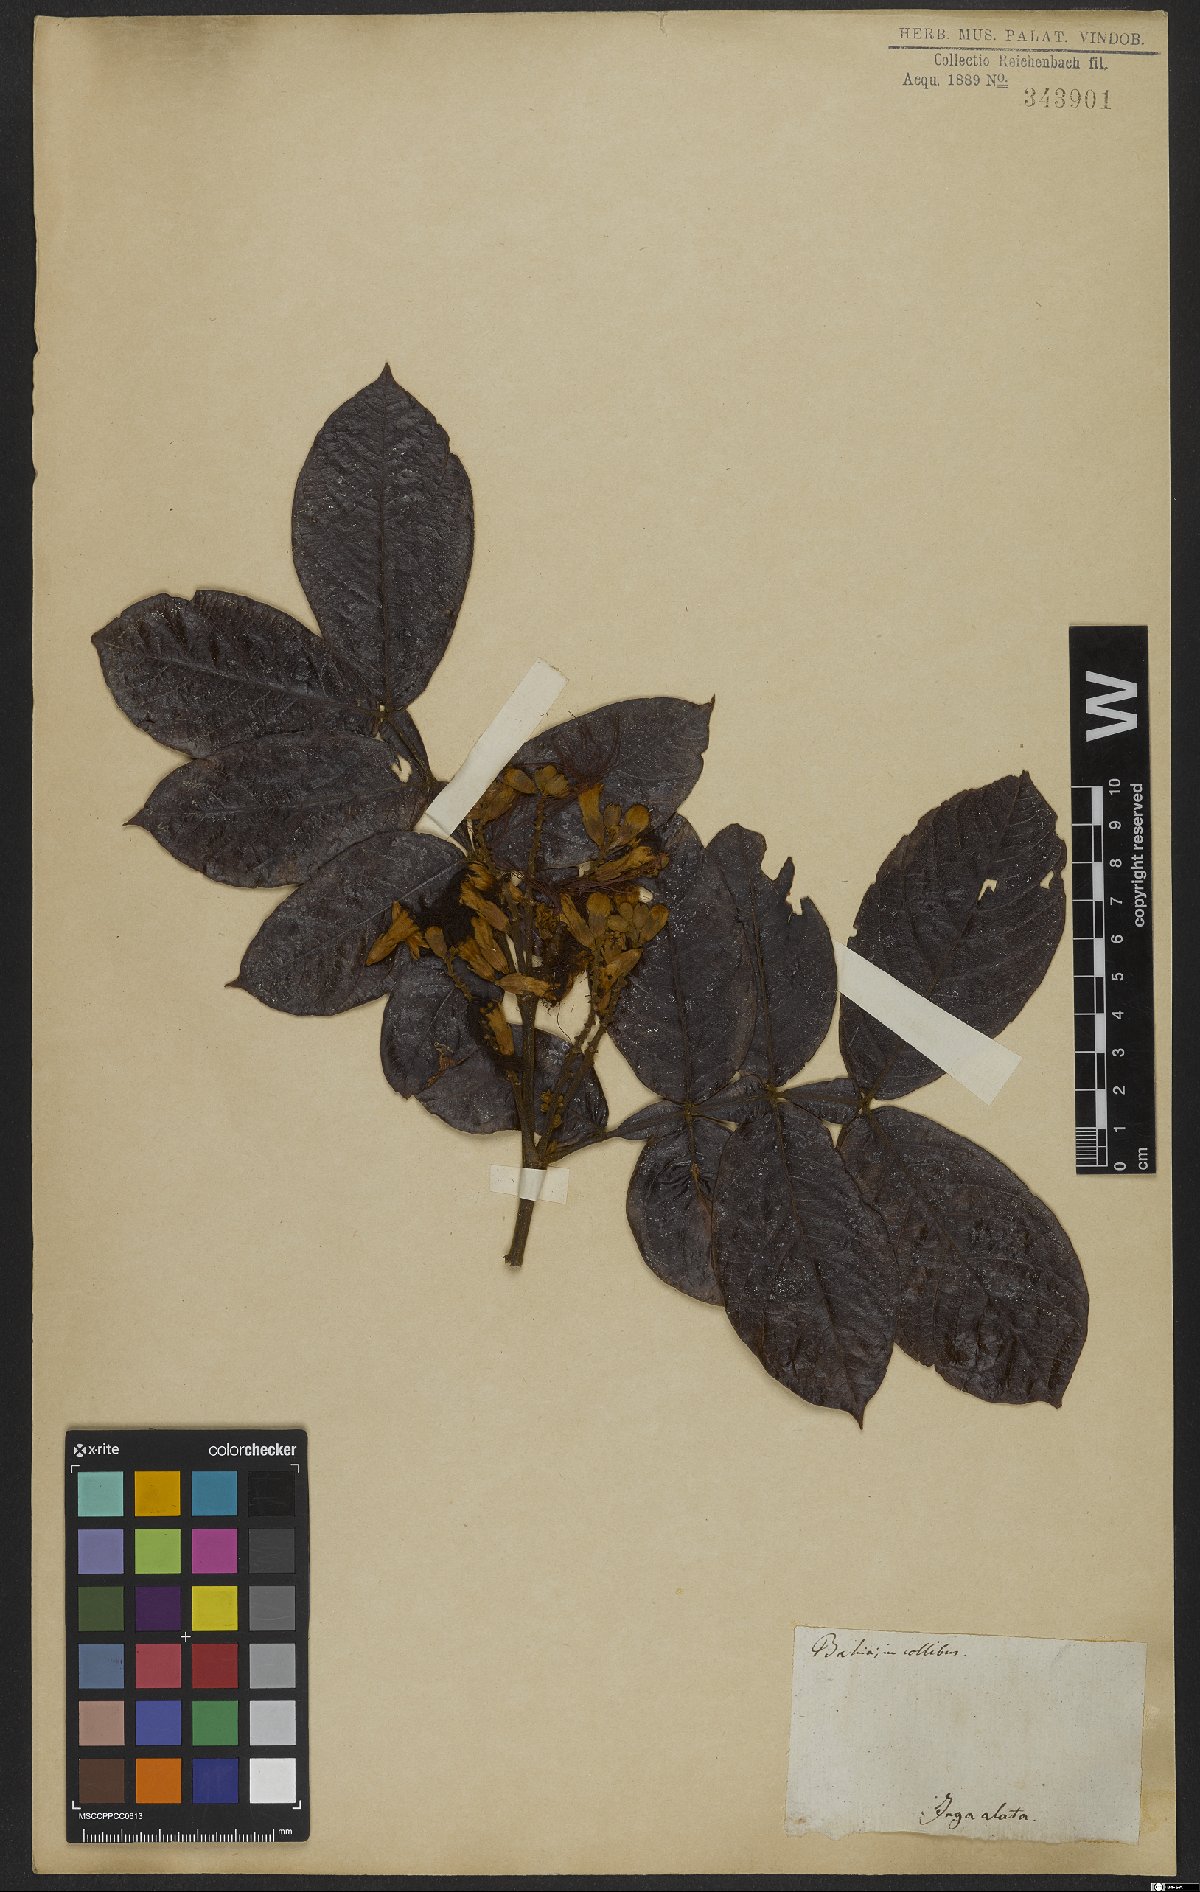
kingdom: Plantae
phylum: Tracheophyta
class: Magnoliopsida
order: Fabales
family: Fabaceae
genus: Inga
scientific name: Inga alata
